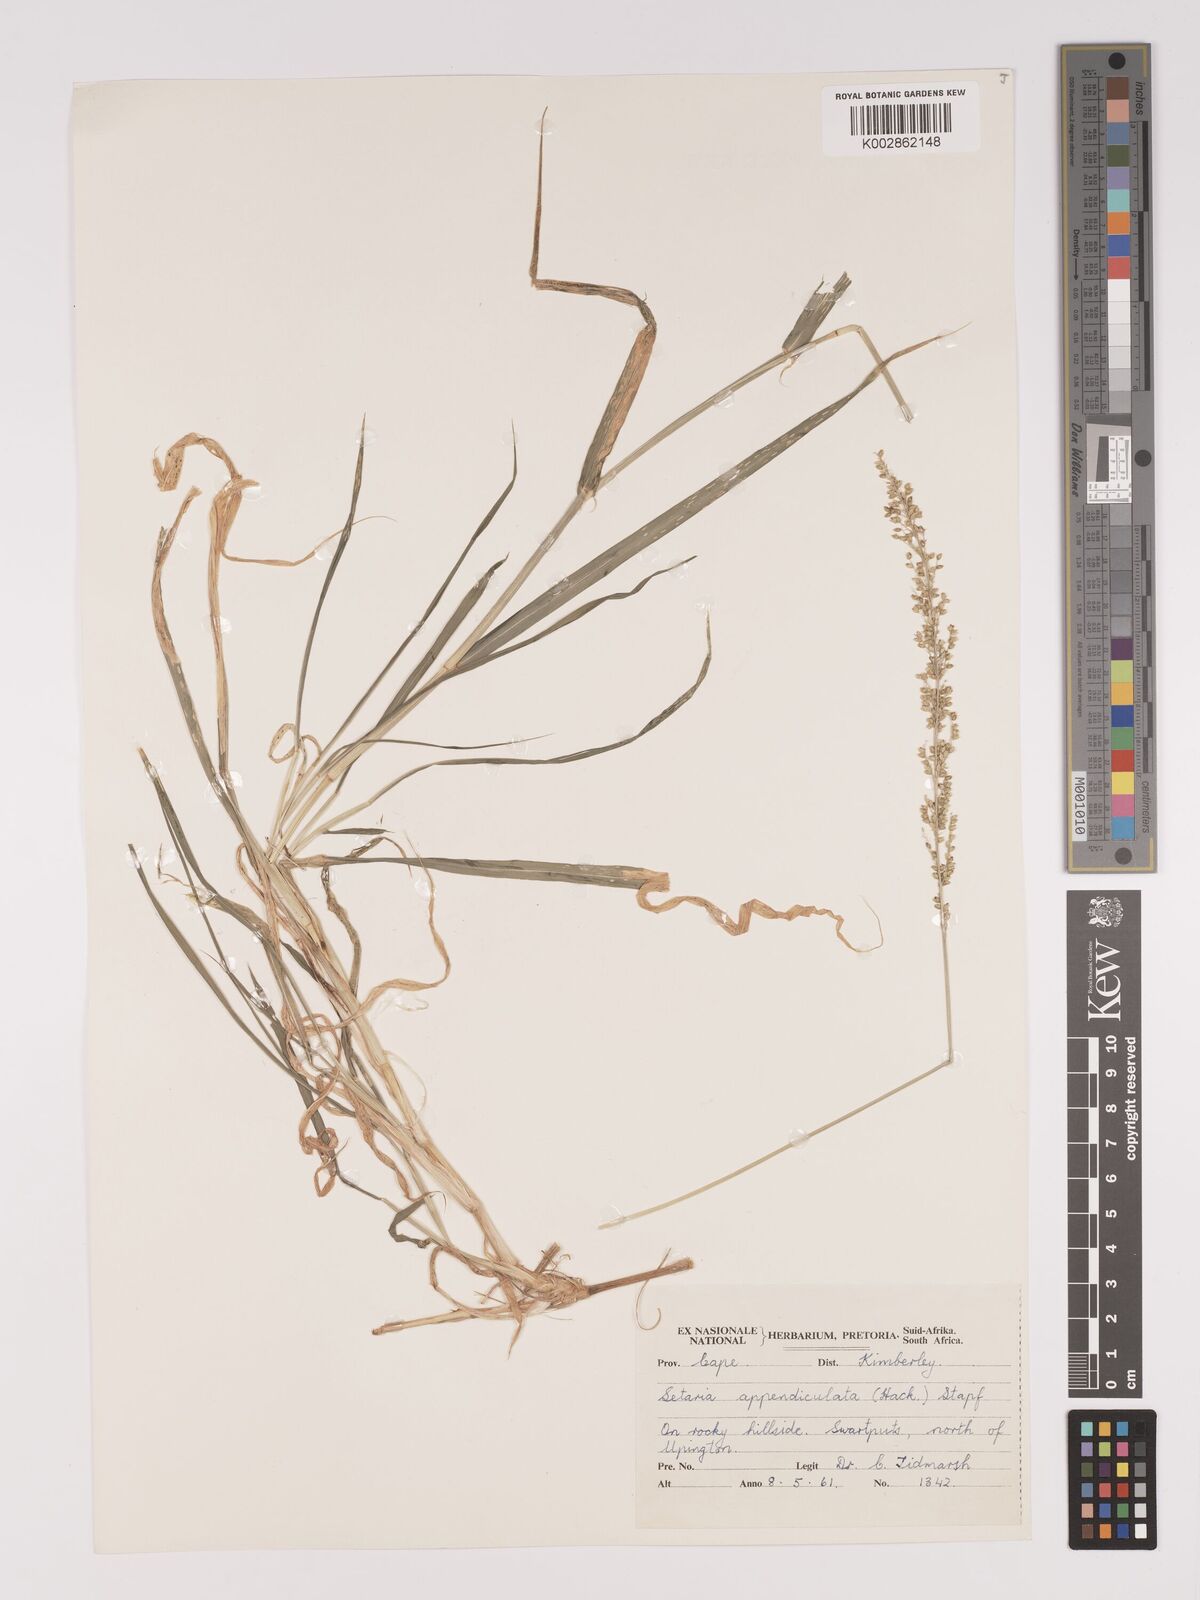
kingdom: Plantae
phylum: Tracheophyta
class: Liliopsida
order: Poales
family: Poaceae
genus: Setaria
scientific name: Setaria appendiculata
